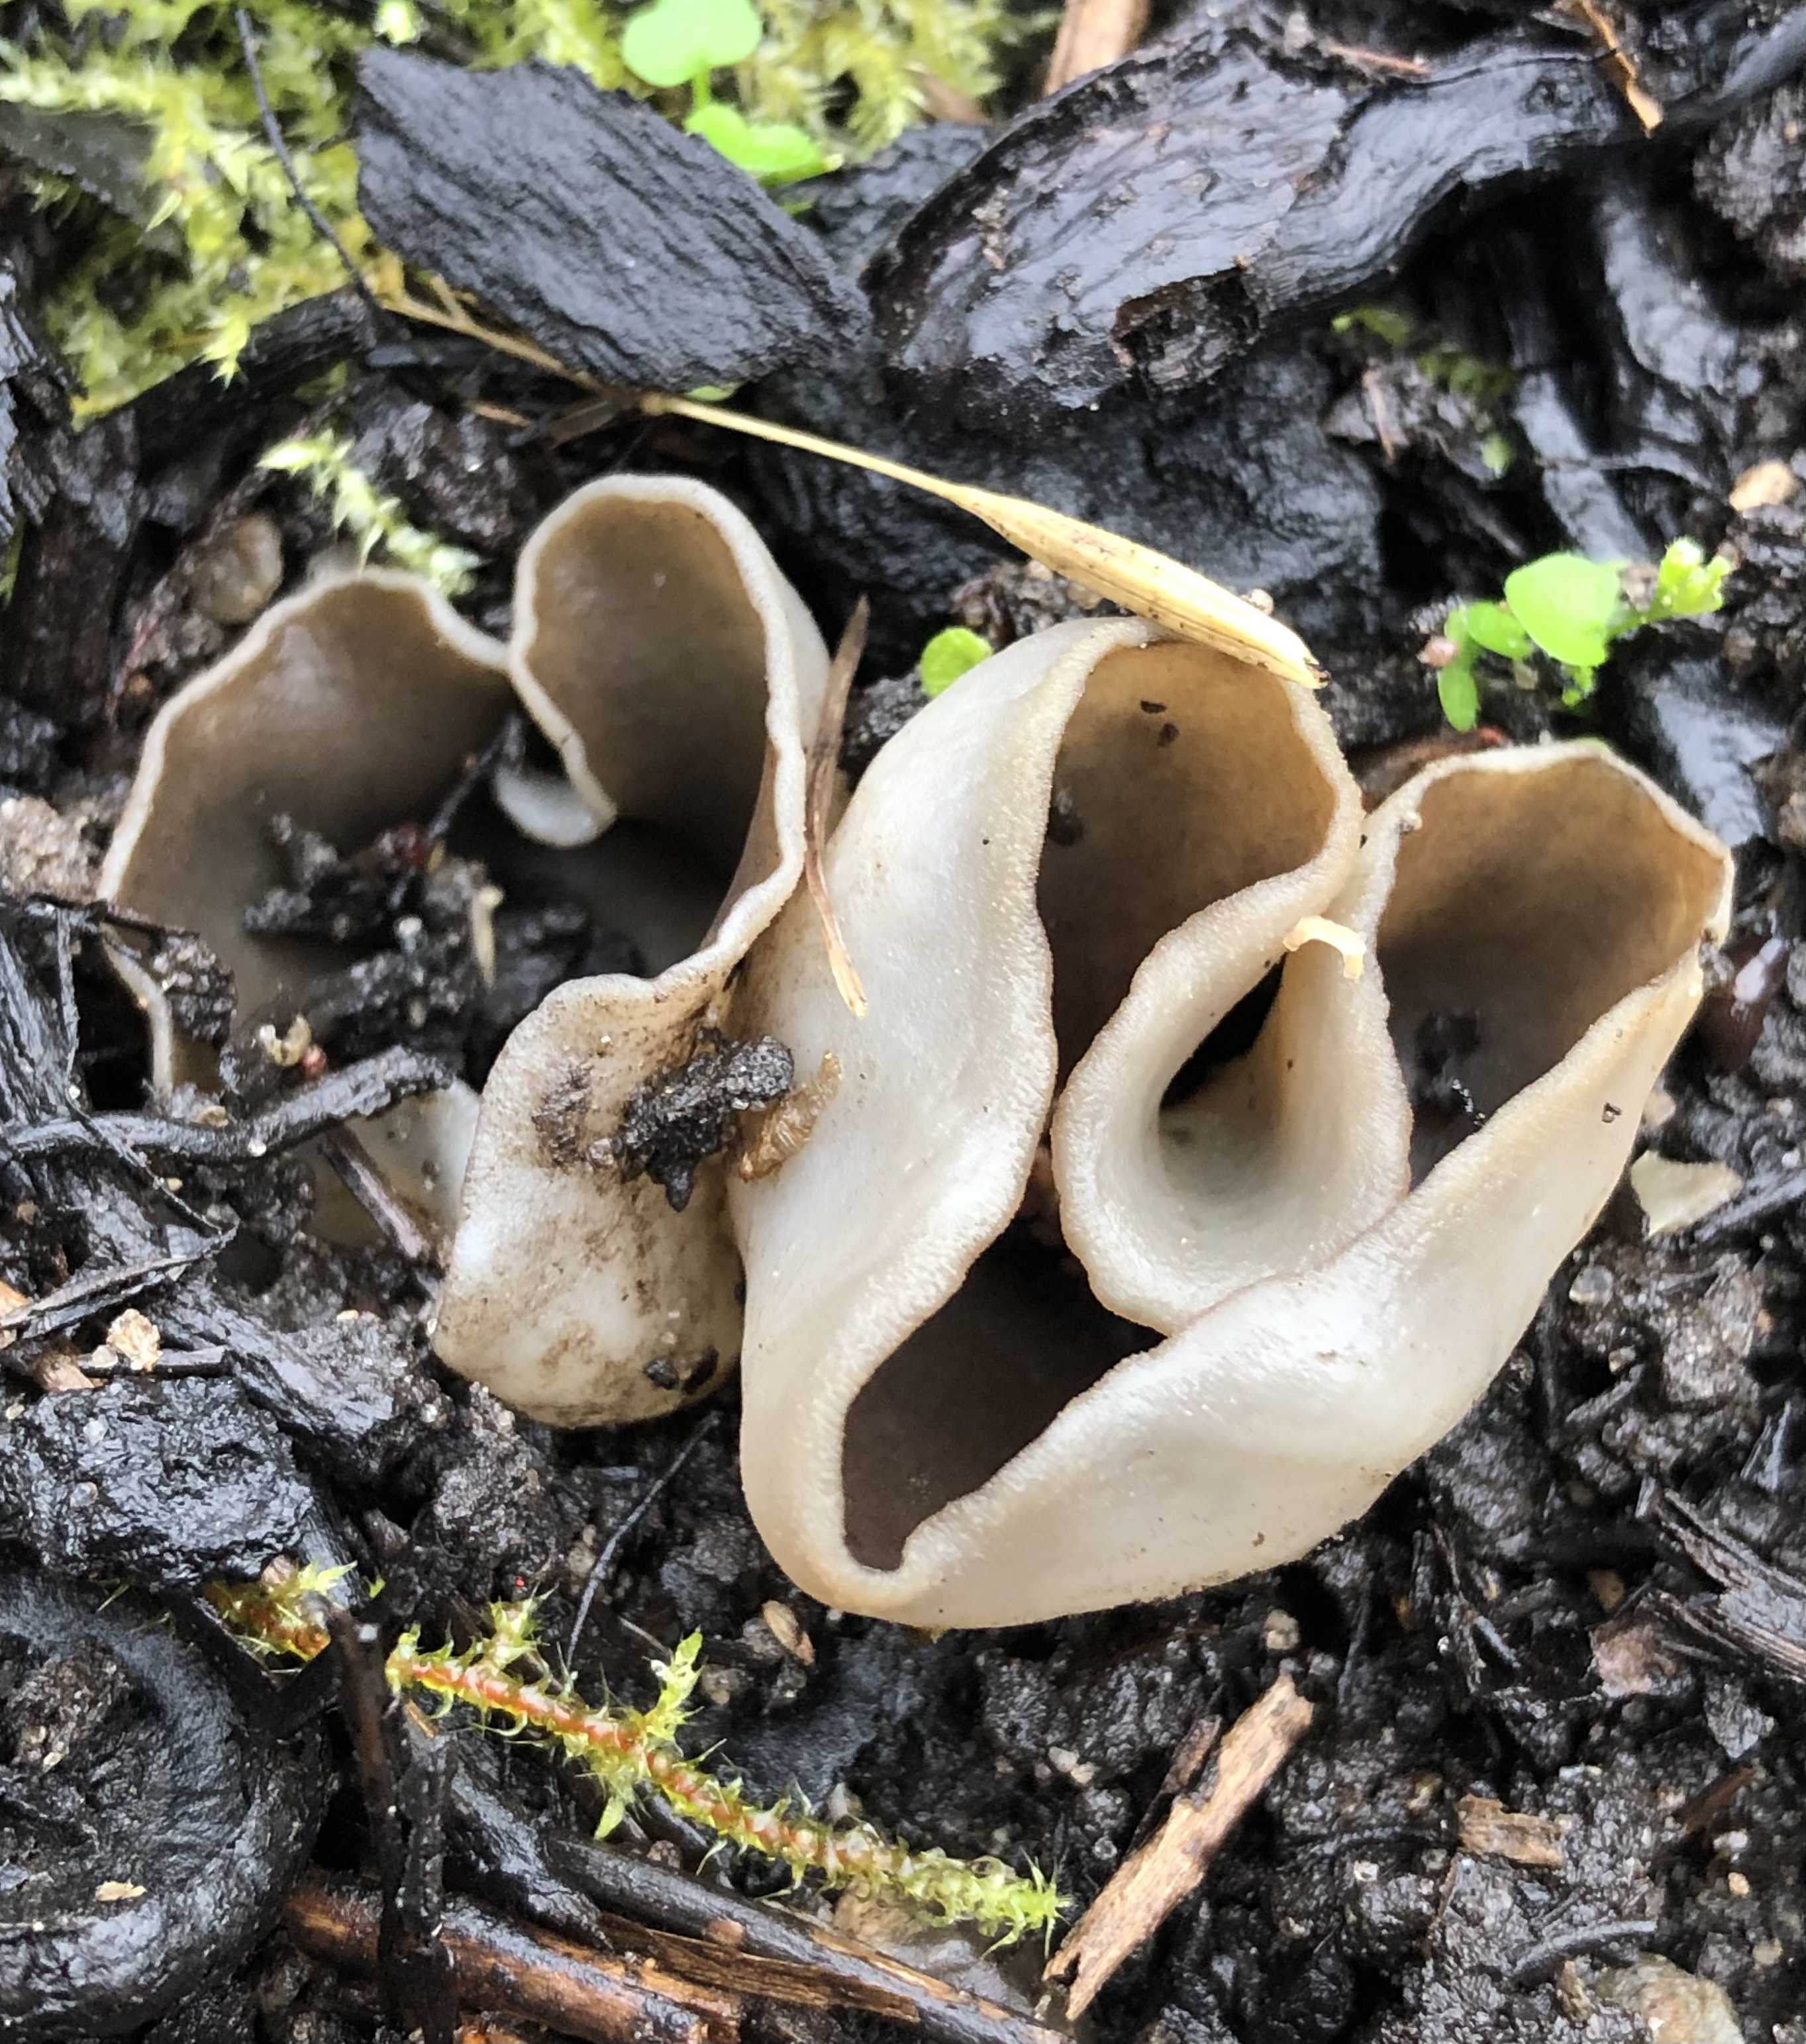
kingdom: Fungi
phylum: Ascomycota
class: Pezizomycetes
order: Pezizales
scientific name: Pezizales
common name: bægersvampordenen
